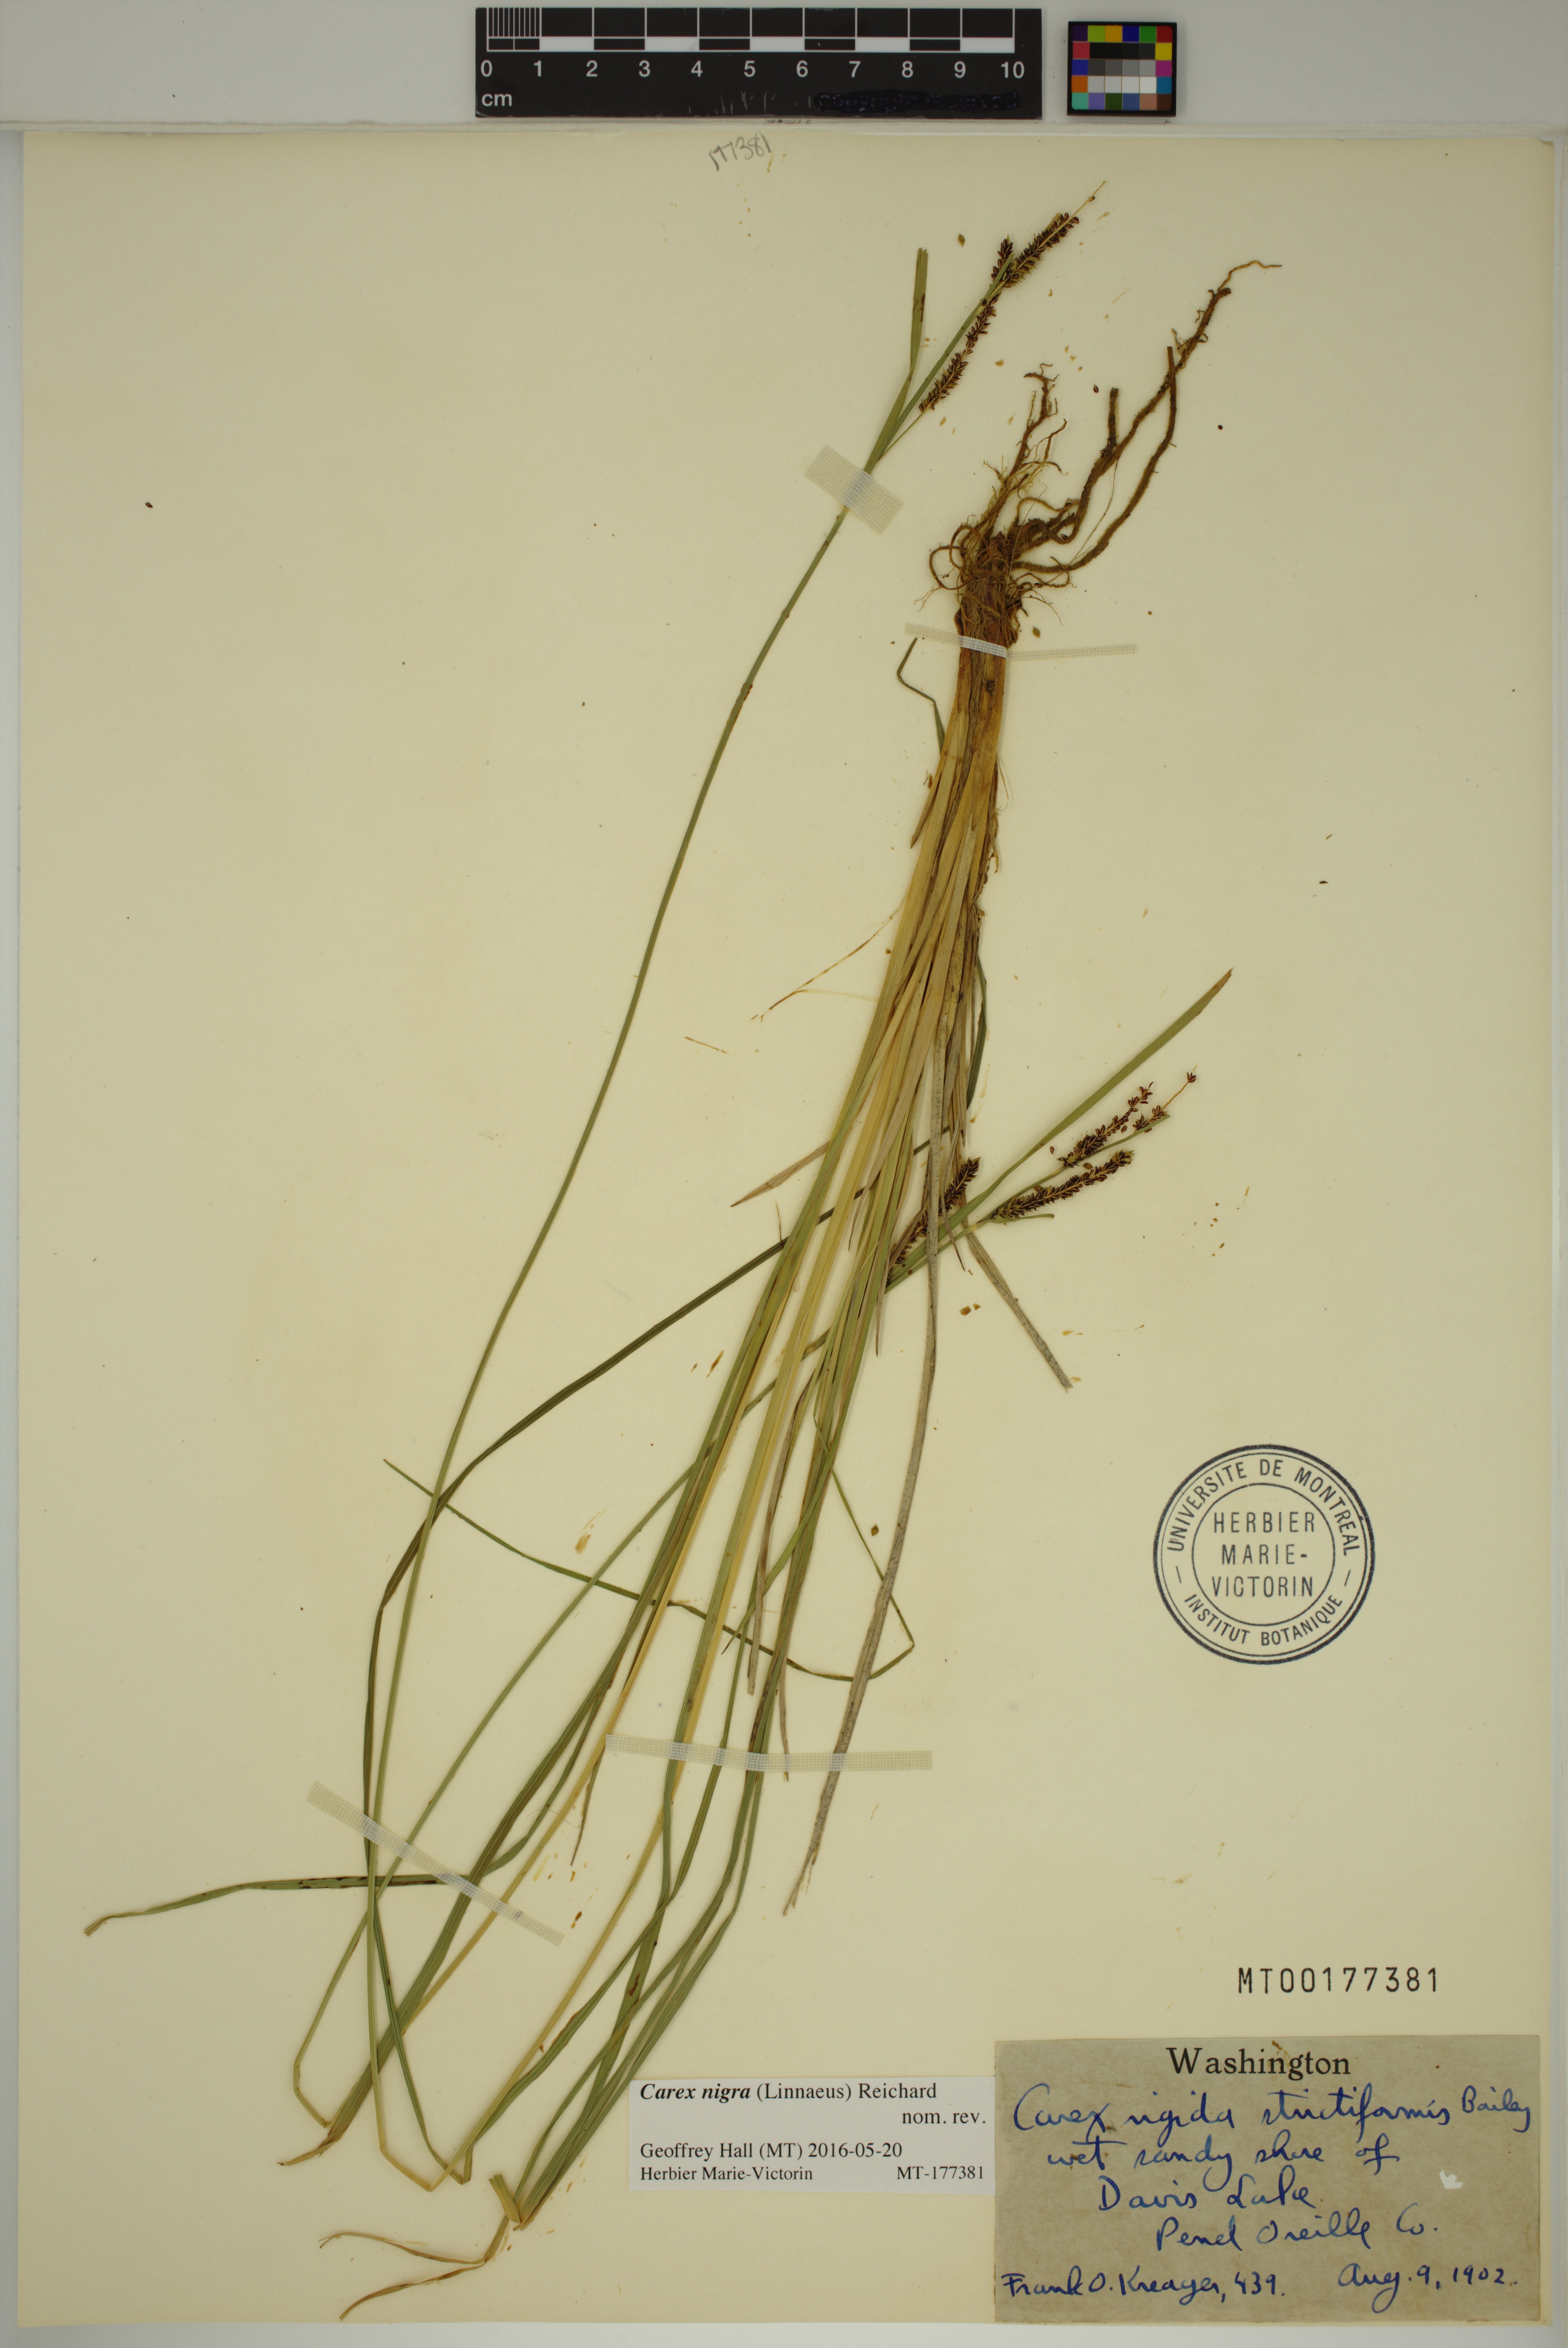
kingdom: Plantae
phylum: Tracheophyta
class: Liliopsida
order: Poales
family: Cyperaceae
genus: Carex
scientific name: Carex nigra
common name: Common sedge
